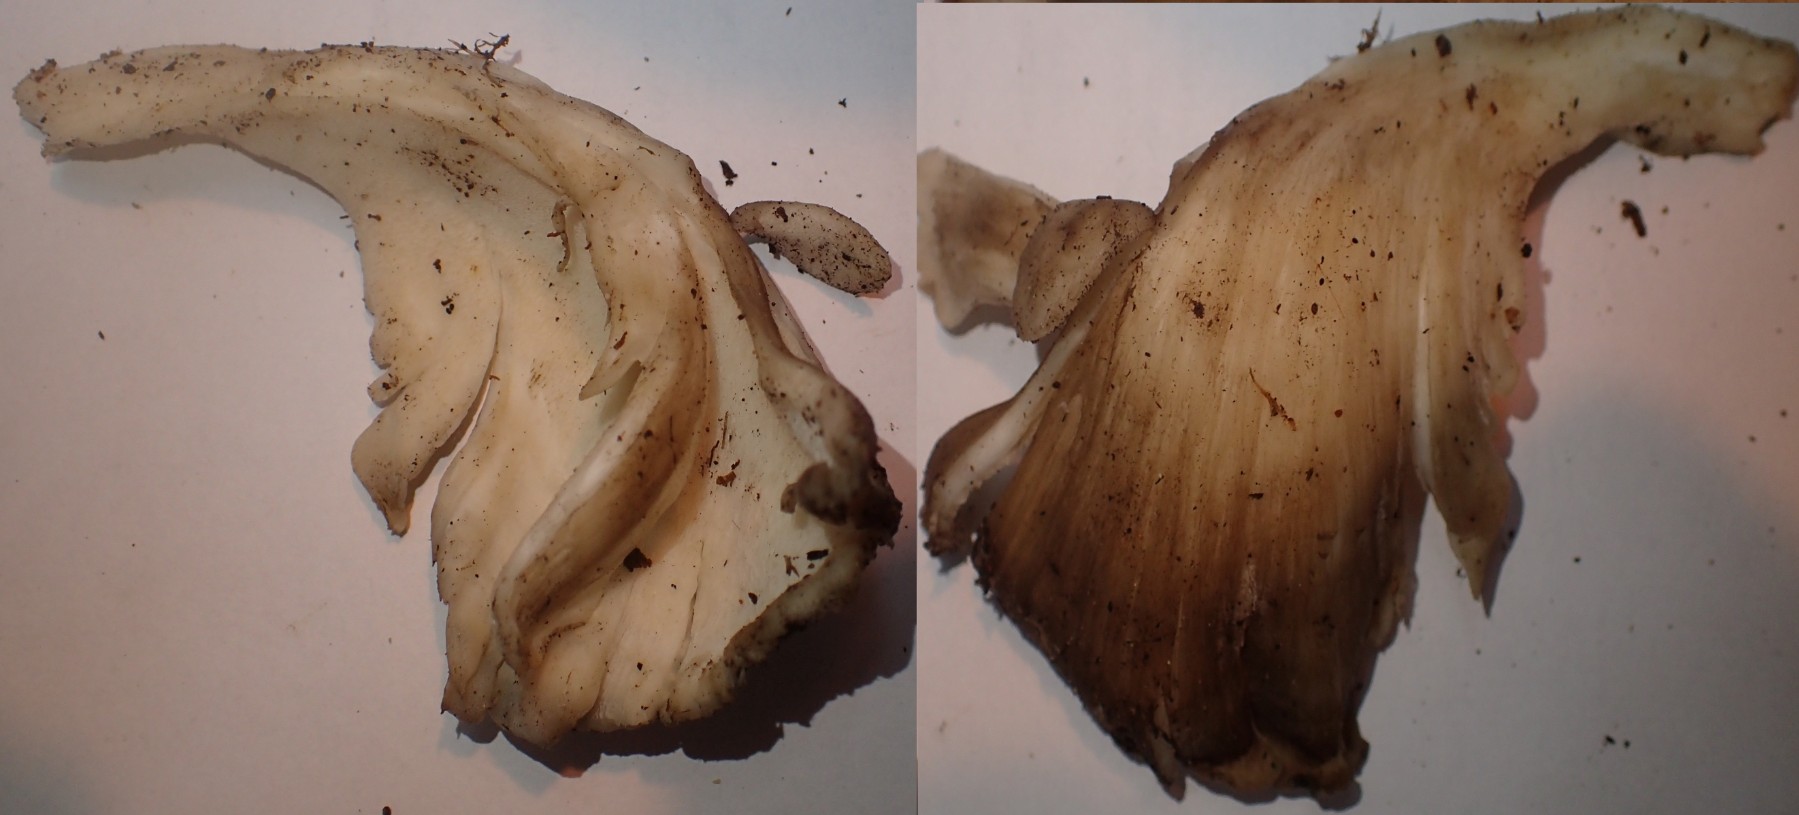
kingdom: Fungi
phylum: Basidiomycota
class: Agaricomycetes
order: Polyporales
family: Grifolaceae
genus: Grifola
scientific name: Grifola frondosa
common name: tueporesvamp
